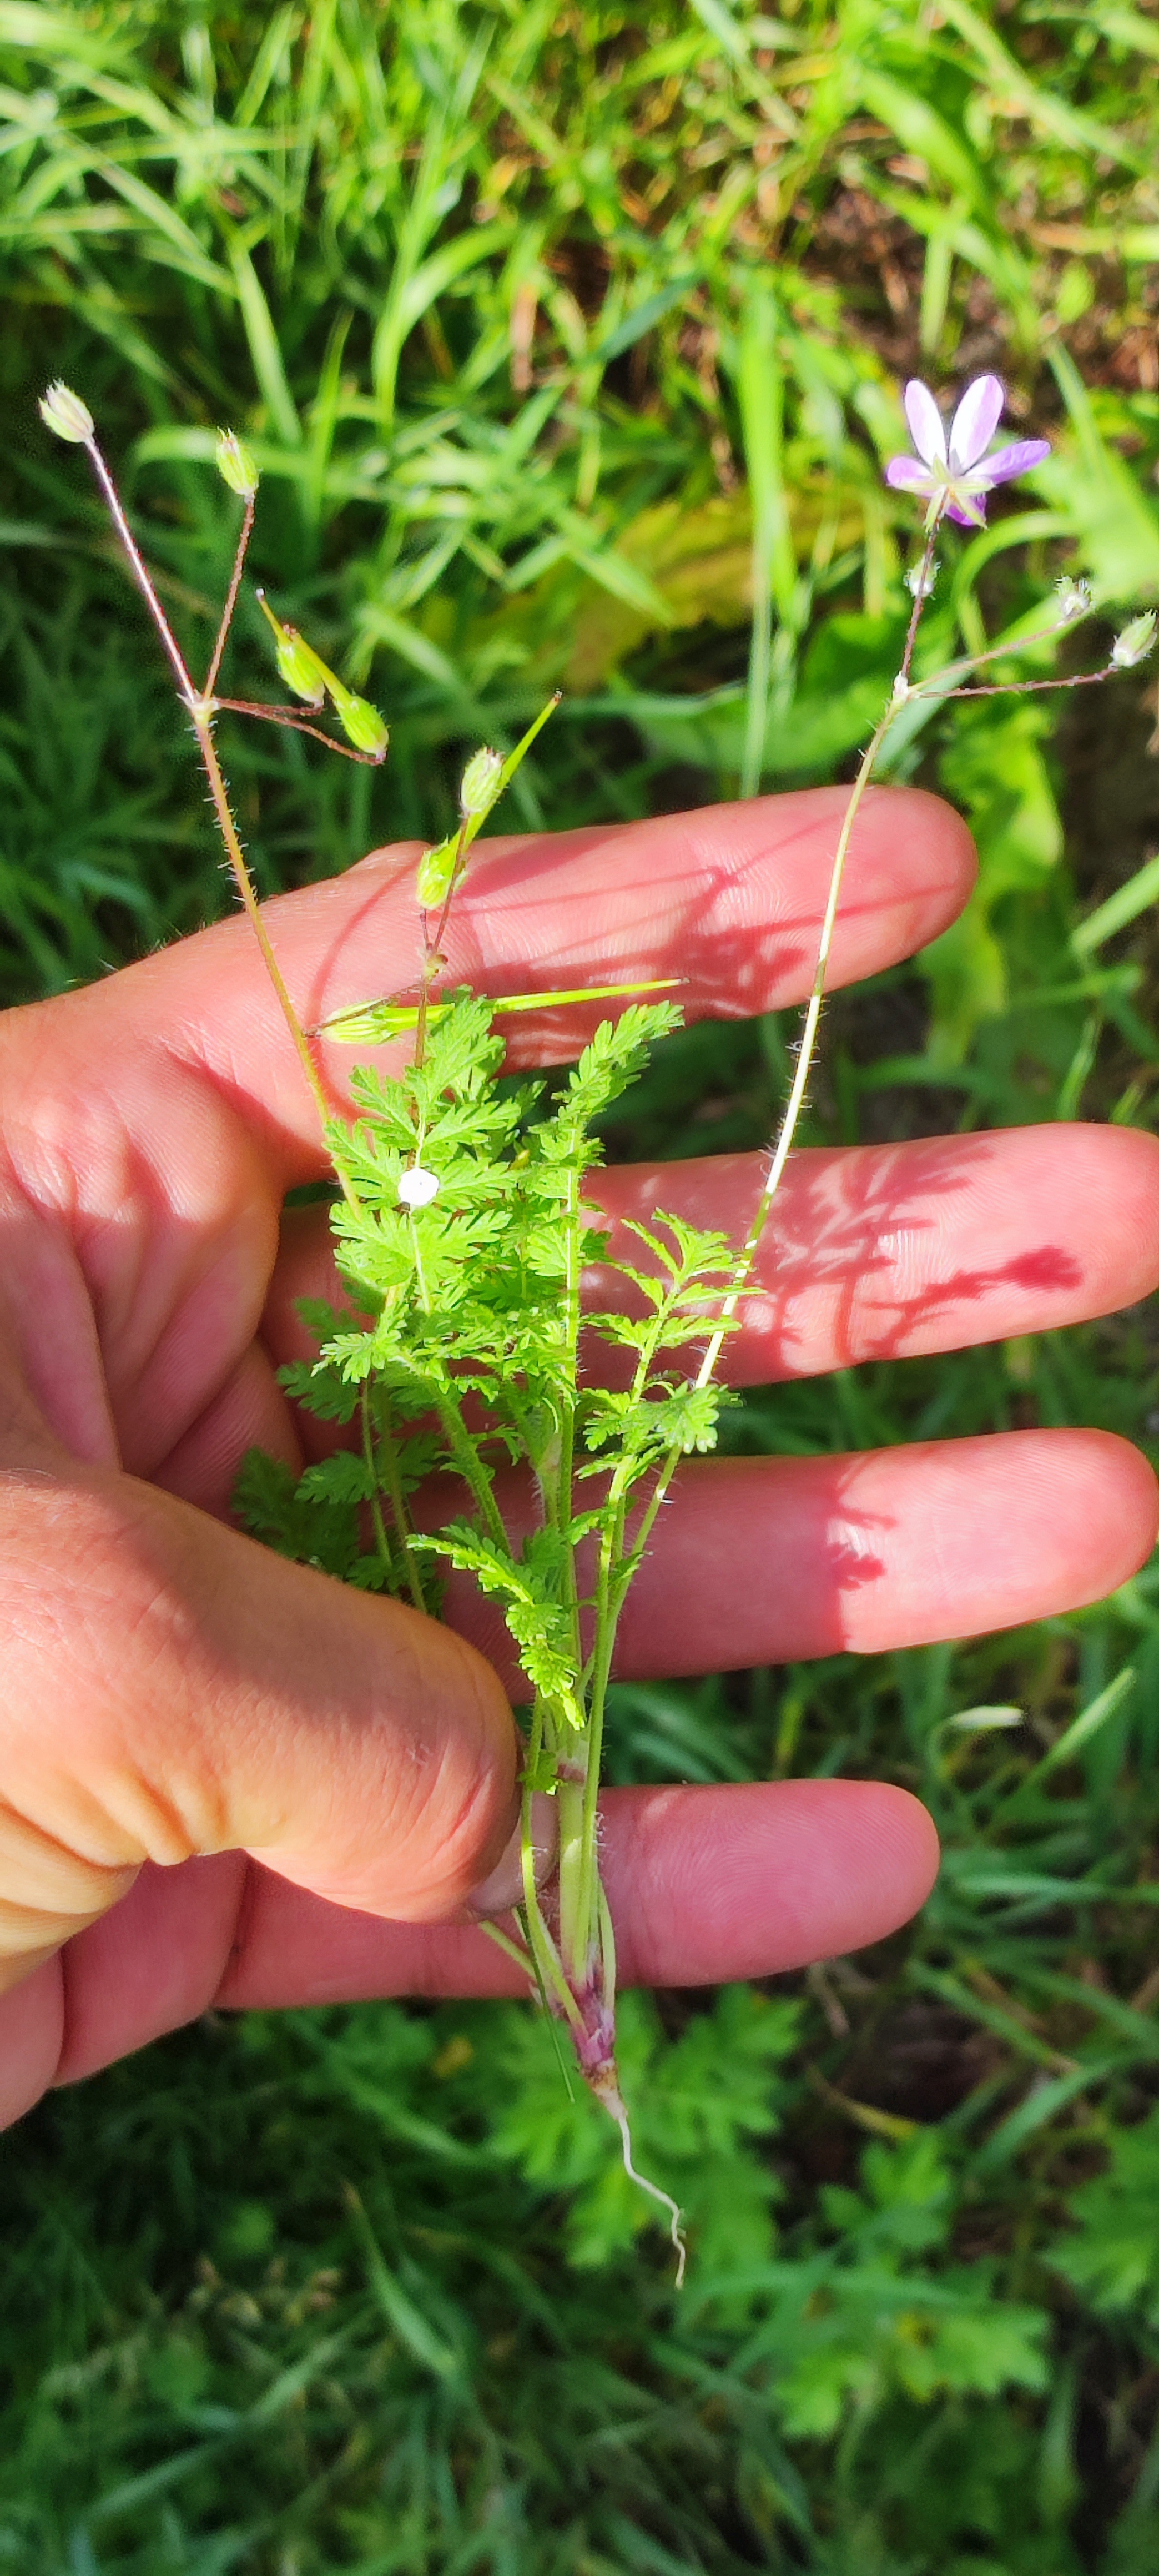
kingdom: Plantae
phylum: Tracheophyta
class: Magnoliopsida
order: Geraniales
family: Geraniaceae
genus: Erodium
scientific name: Erodium cicutarium
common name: Hejrenæb
